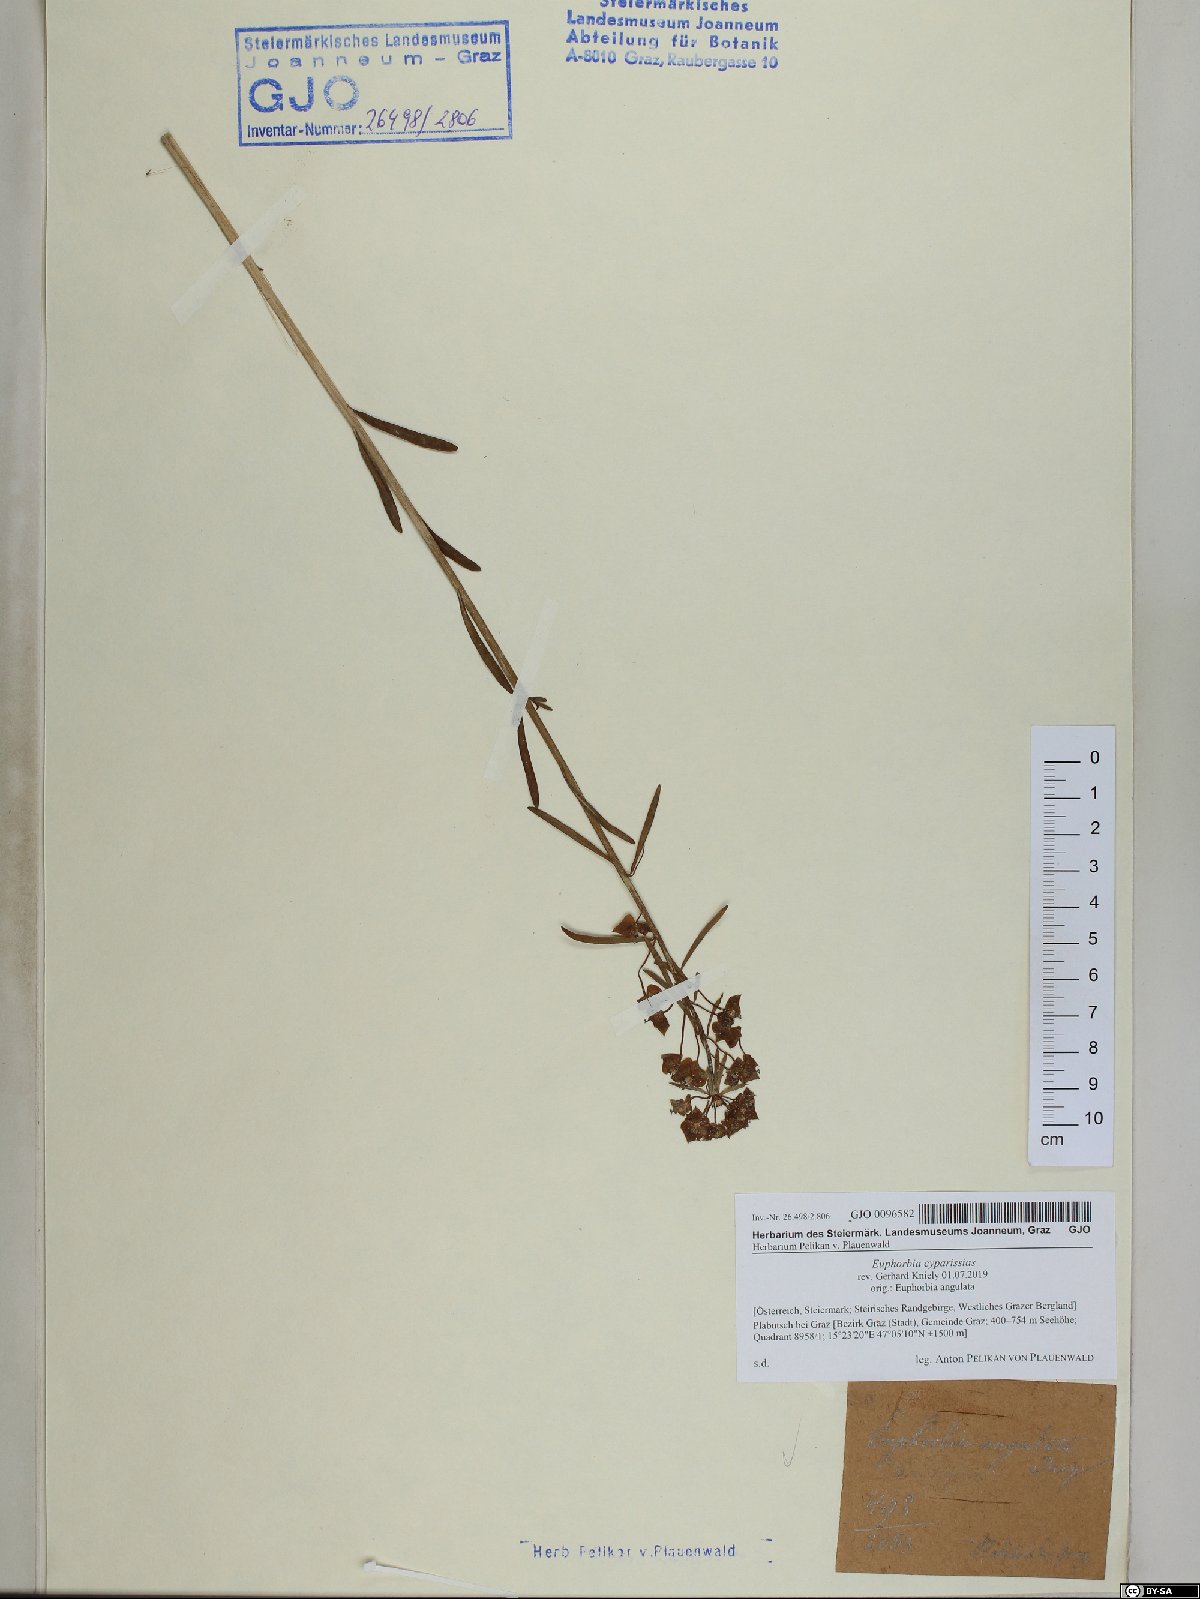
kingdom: Plantae
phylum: Tracheophyta
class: Magnoliopsida
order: Malpighiales
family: Euphorbiaceae
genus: Euphorbia
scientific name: Euphorbia cyparissias
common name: Cypress spurge
